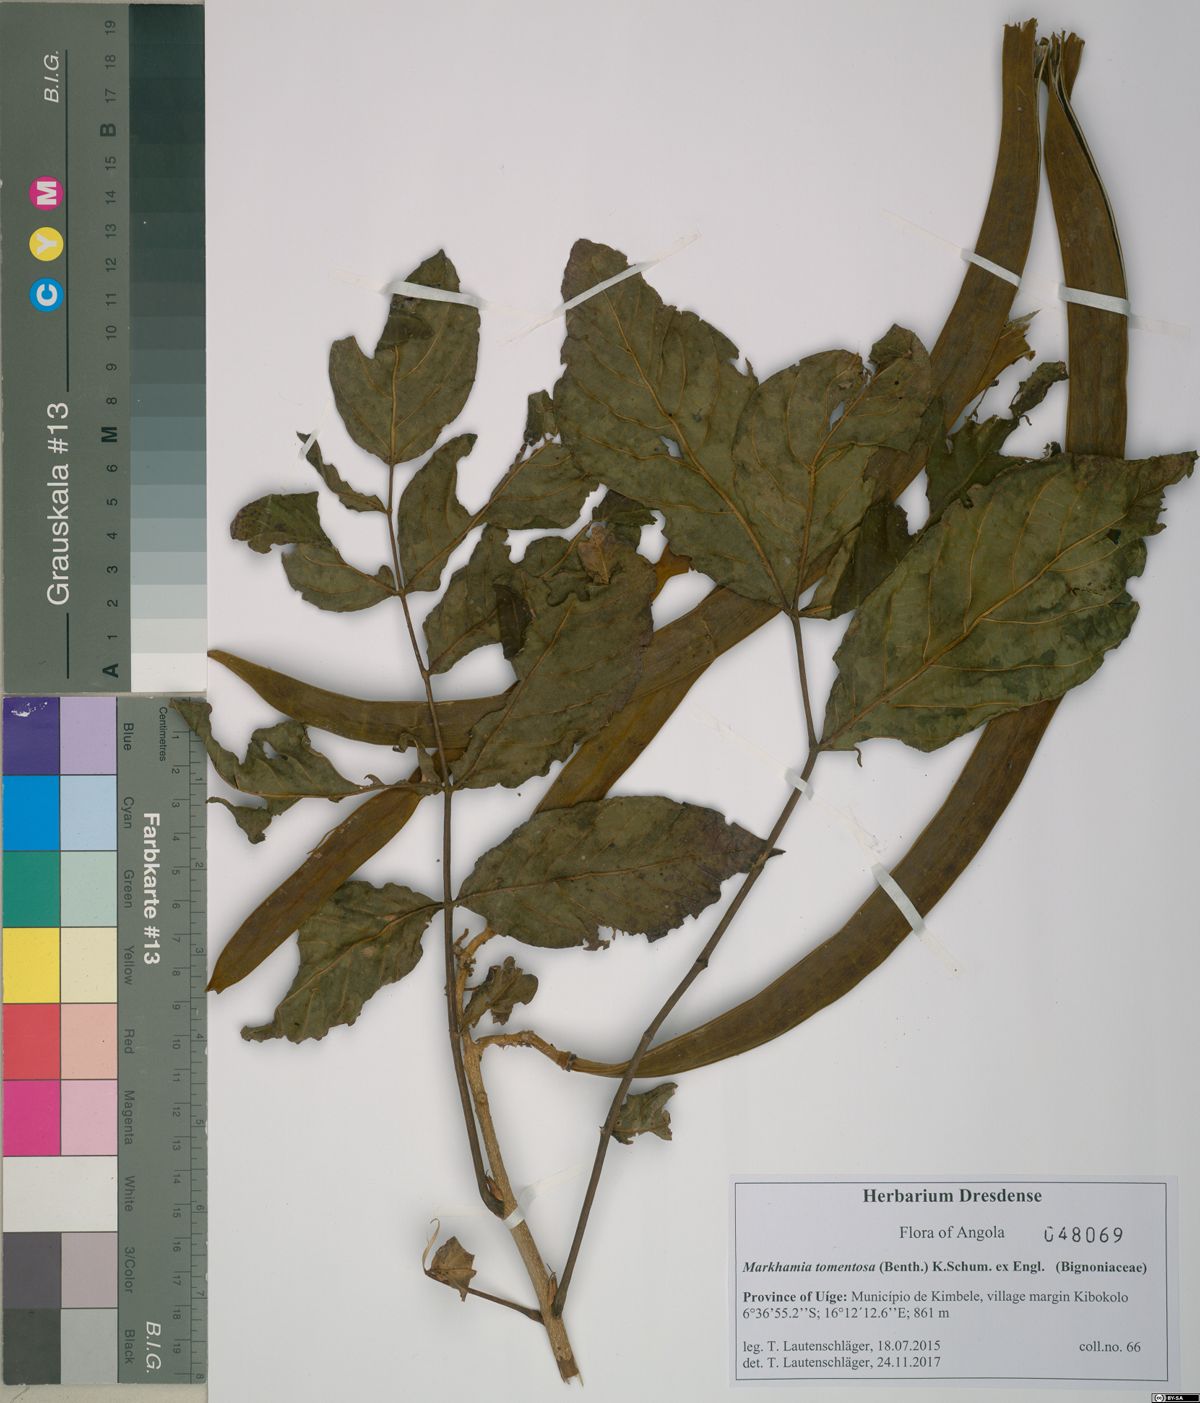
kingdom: Plantae
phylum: Tracheophyta
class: Magnoliopsida
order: Lamiales
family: Bignoniaceae
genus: Markhamia
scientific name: Markhamia tomentosa
